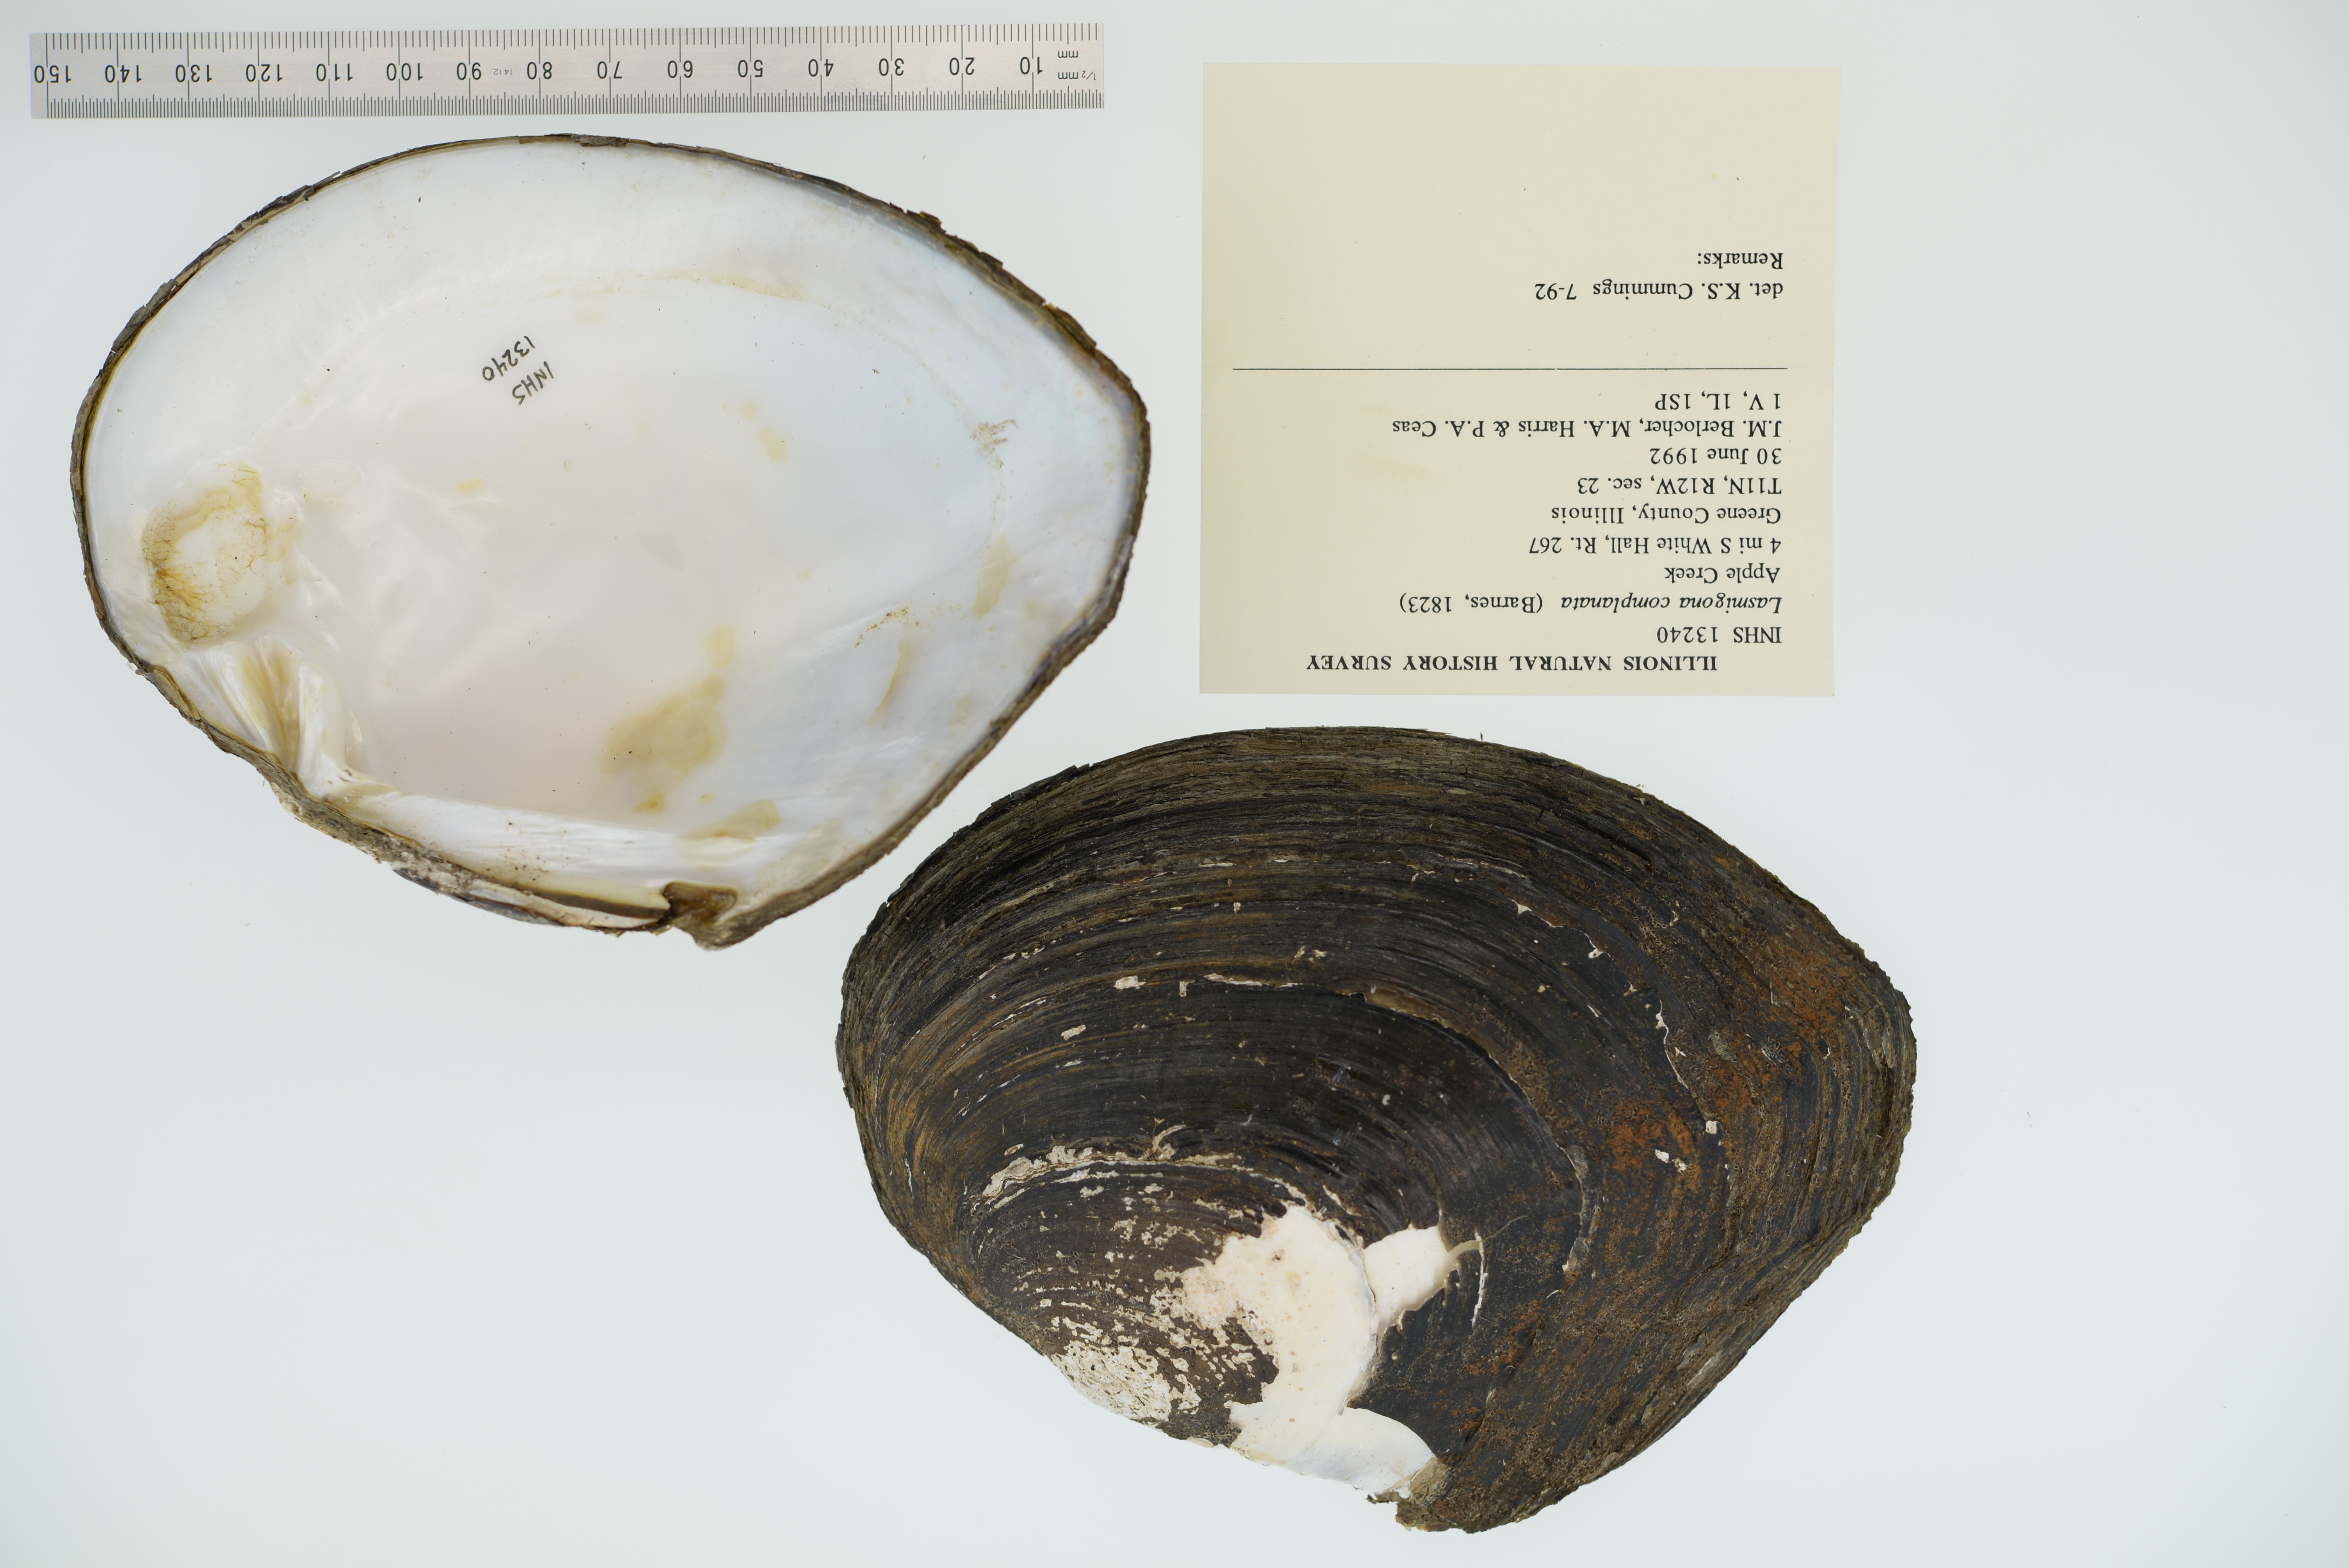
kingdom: Animalia
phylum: Mollusca
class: Bivalvia
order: Unionida
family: Unionidae
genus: Lasmigona
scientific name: Lasmigona complanata
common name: White heelsplitter
